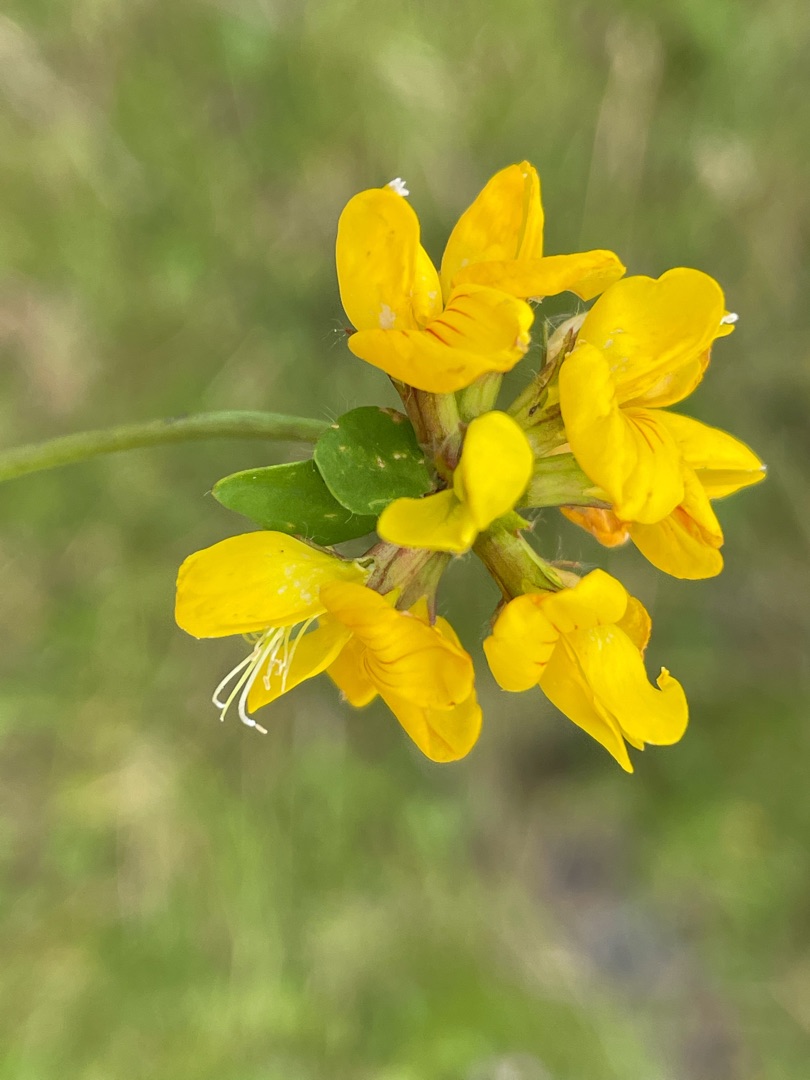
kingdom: Plantae
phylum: Tracheophyta
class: Magnoliopsida
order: Fabales
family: Fabaceae
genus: Lotus
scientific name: Lotus pedunculatus
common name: Sump-kællingetand
